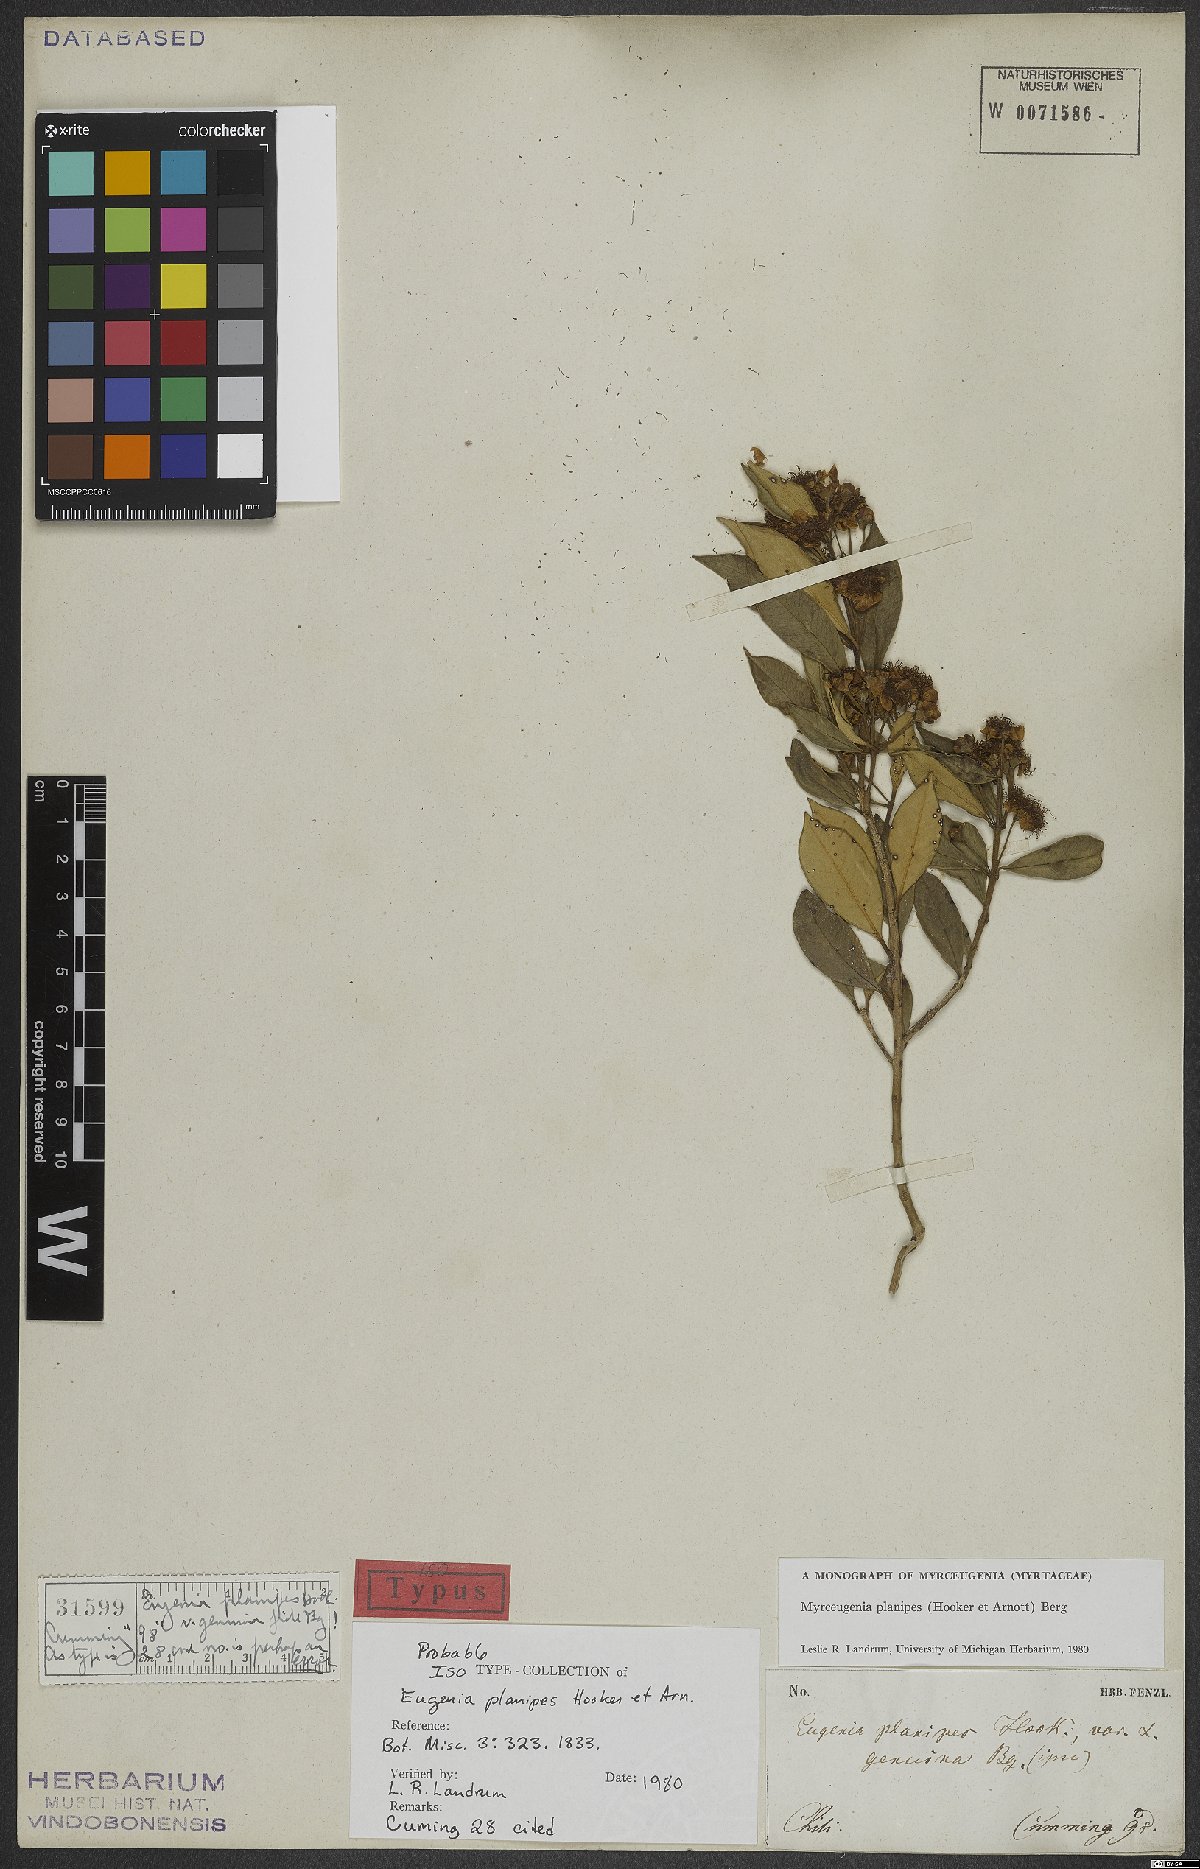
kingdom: Plantae
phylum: Tracheophyta
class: Magnoliopsida
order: Myrtales
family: Myrtaceae
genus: Myrceugenia
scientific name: Myrceugenia planipes
